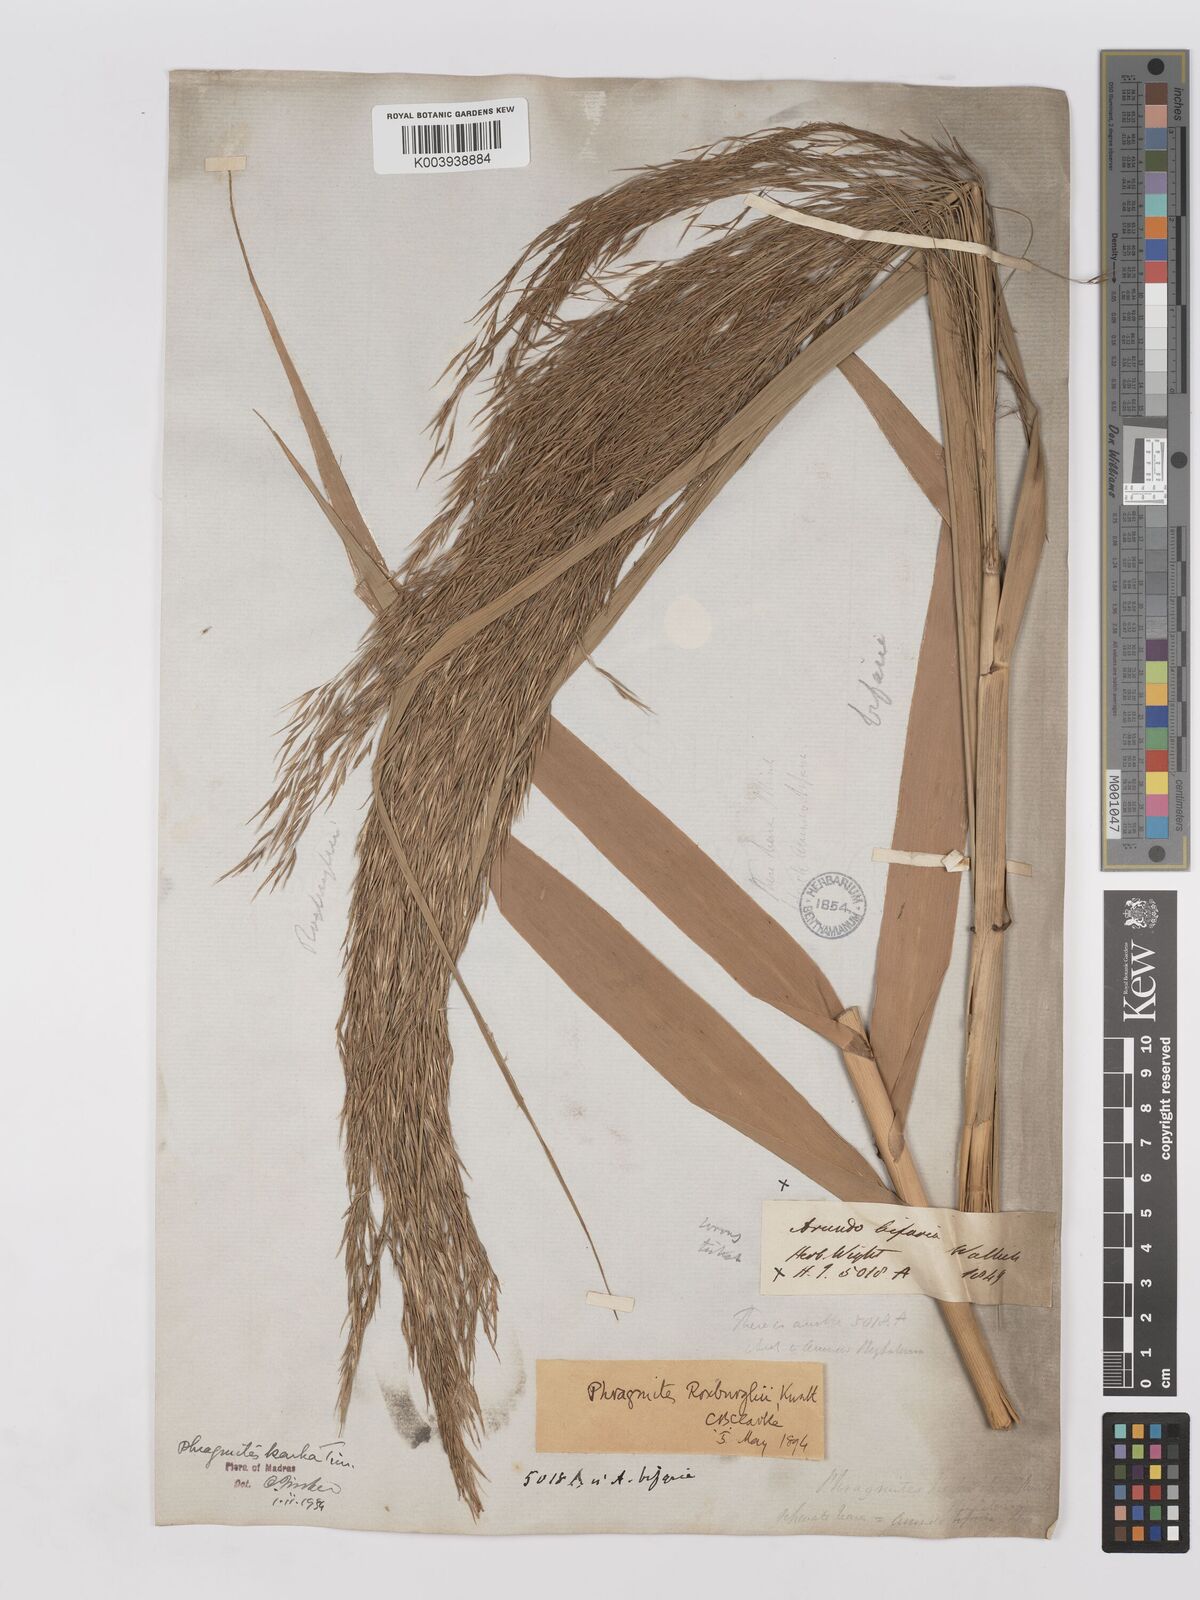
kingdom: Plantae
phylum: Tracheophyta
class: Liliopsida
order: Poales
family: Poaceae
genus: Phragmites
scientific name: Phragmites karka
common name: Tropical reed
